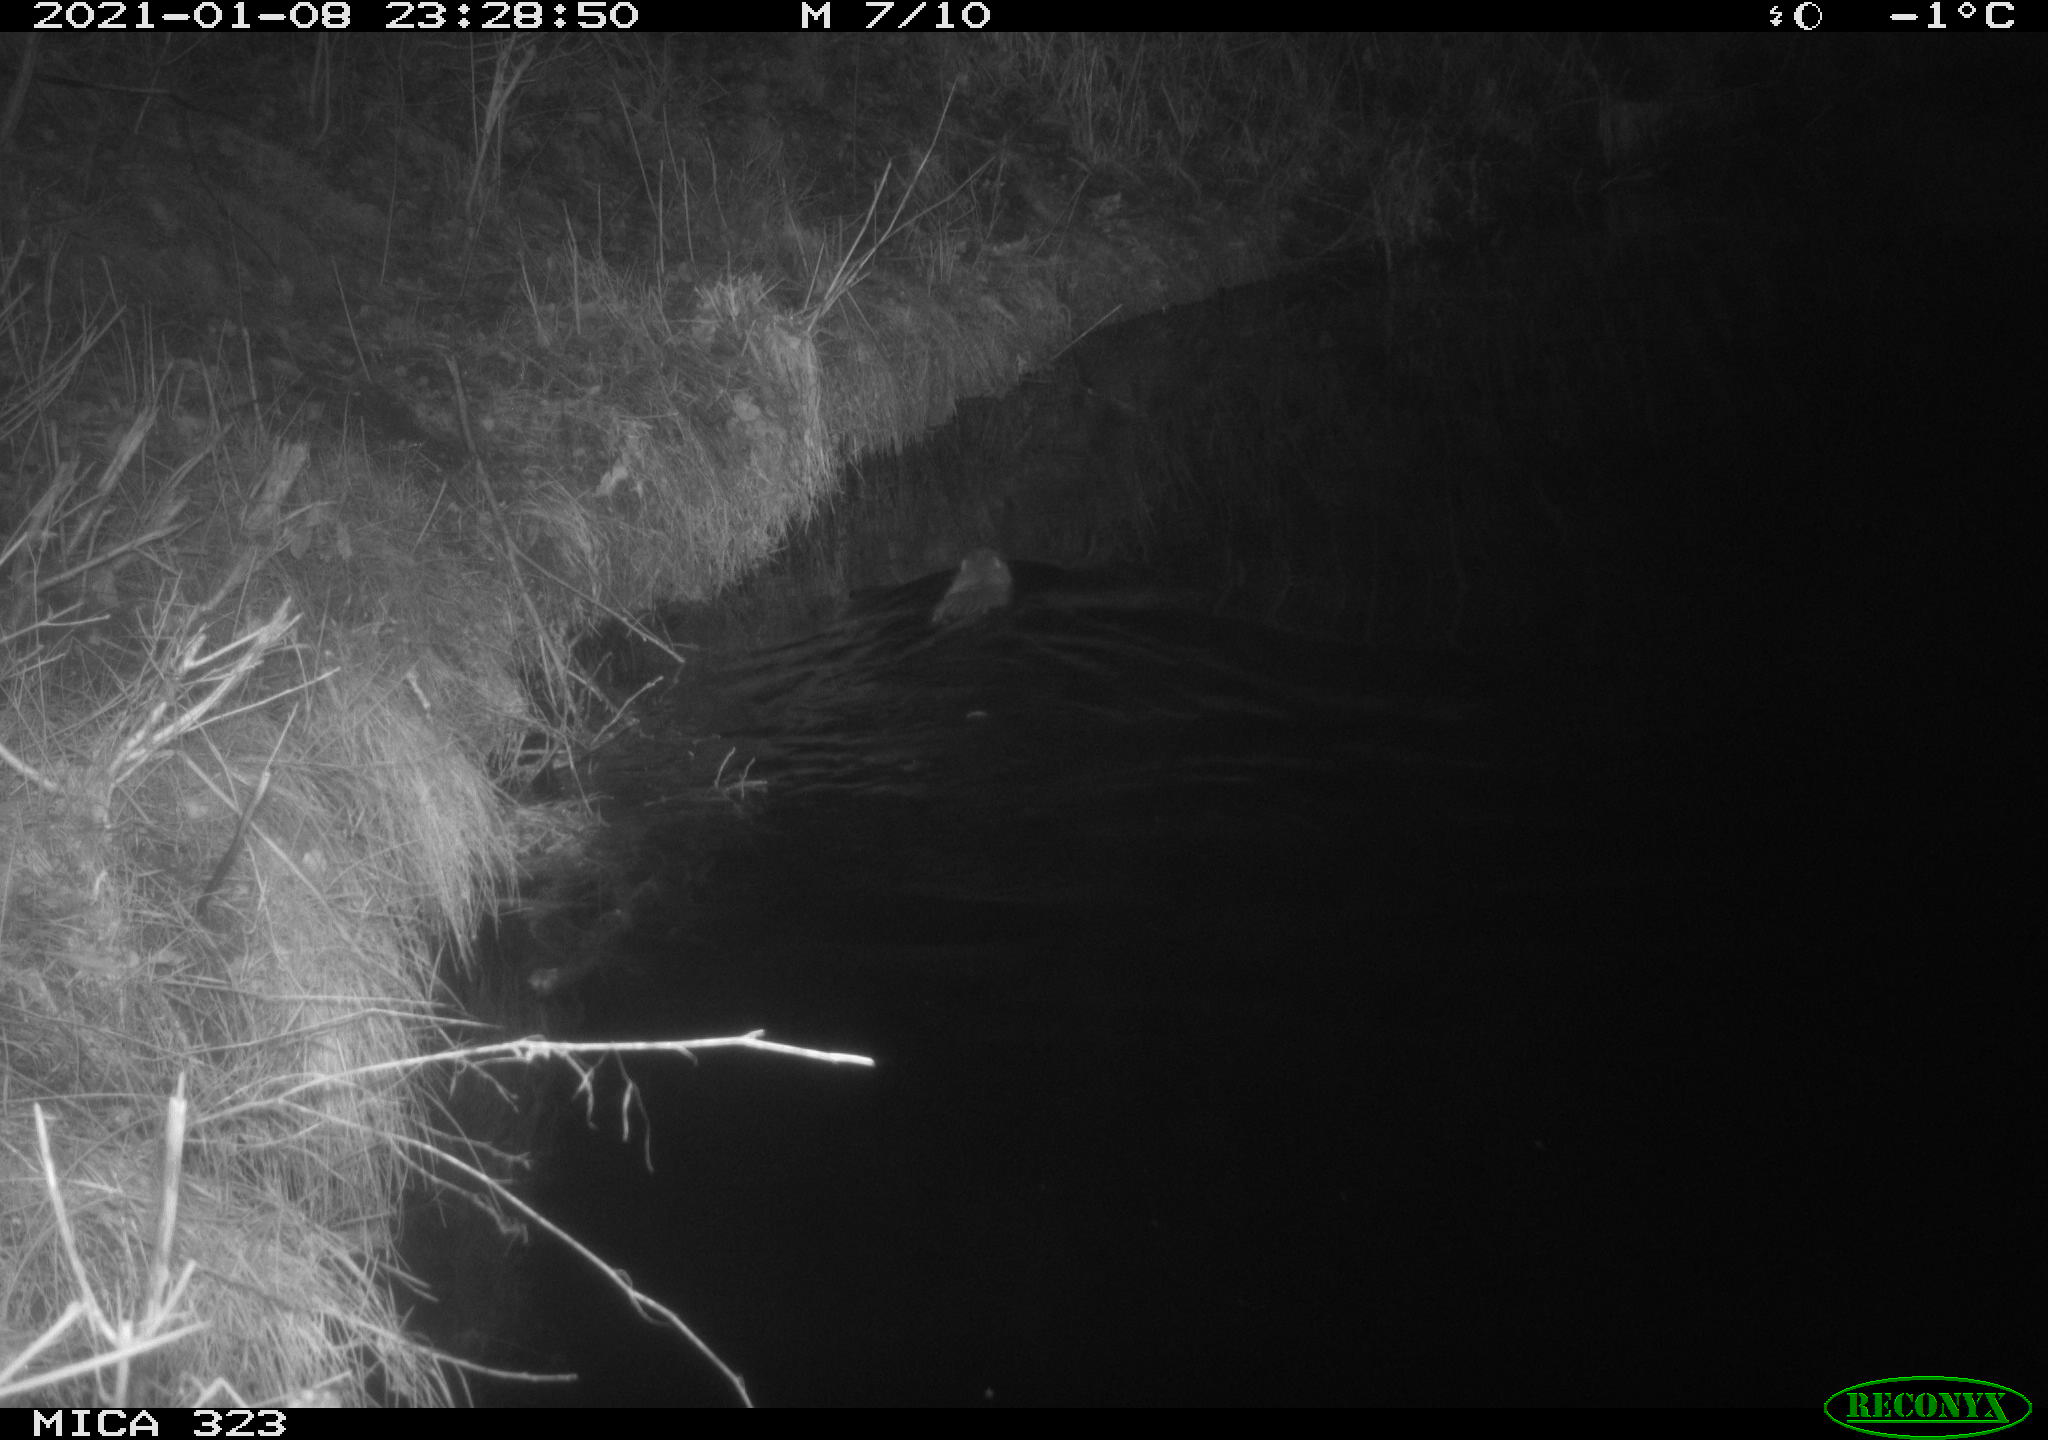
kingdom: Animalia
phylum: Chordata
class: Mammalia
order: Rodentia
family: Myocastoridae
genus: Myocastor
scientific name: Myocastor coypus
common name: Coypu
